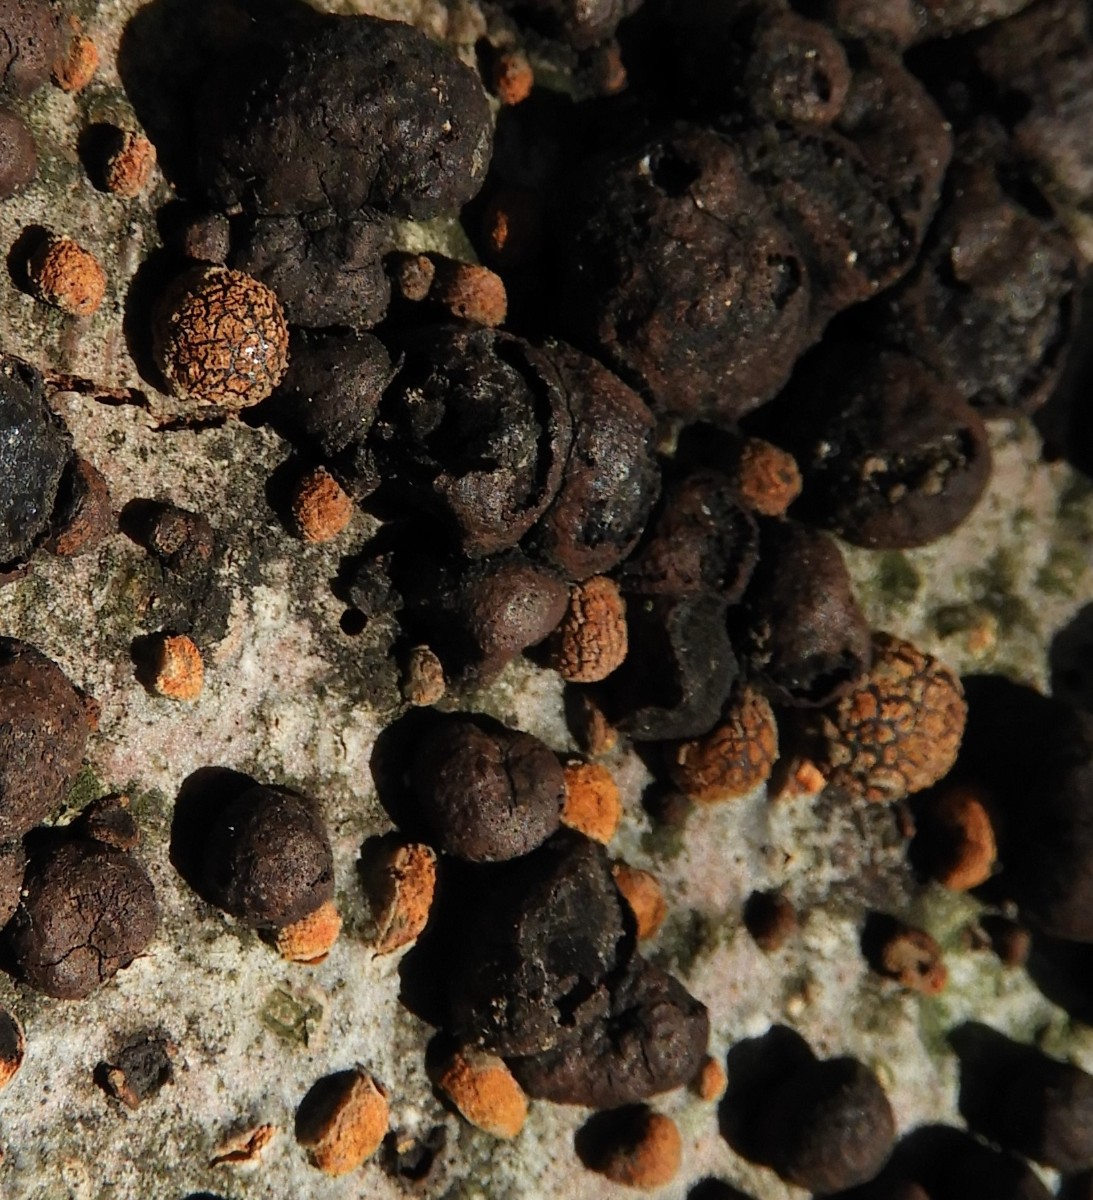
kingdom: Fungi
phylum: Ascomycota
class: Sordariomycetes
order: Xylariales
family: Hypoxylaceae
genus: Hypoxylon
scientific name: Hypoxylon fragiforme
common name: kuljordbær
